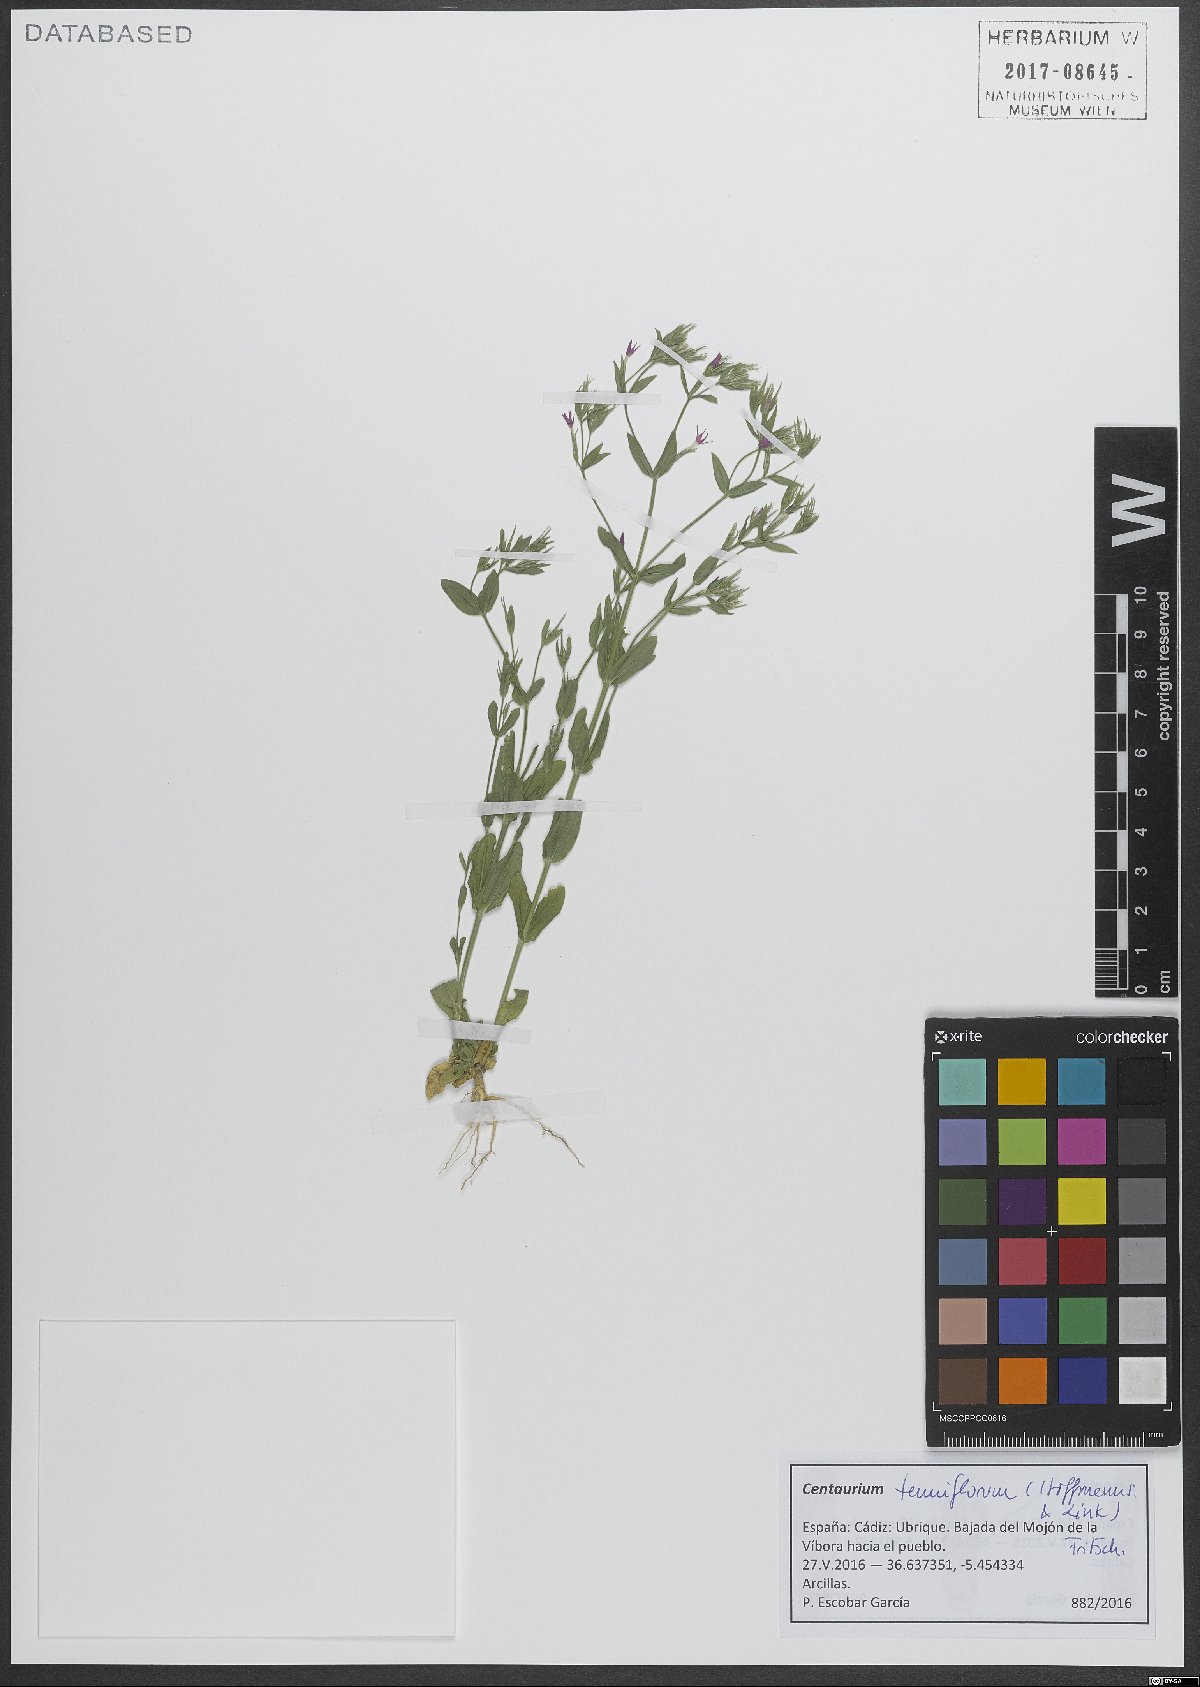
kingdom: Plantae
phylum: Tracheophyta
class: Magnoliopsida
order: Gentianales
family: Gentianaceae
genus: Centaurium
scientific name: Centaurium tenuiflorum
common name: Slender centaury
